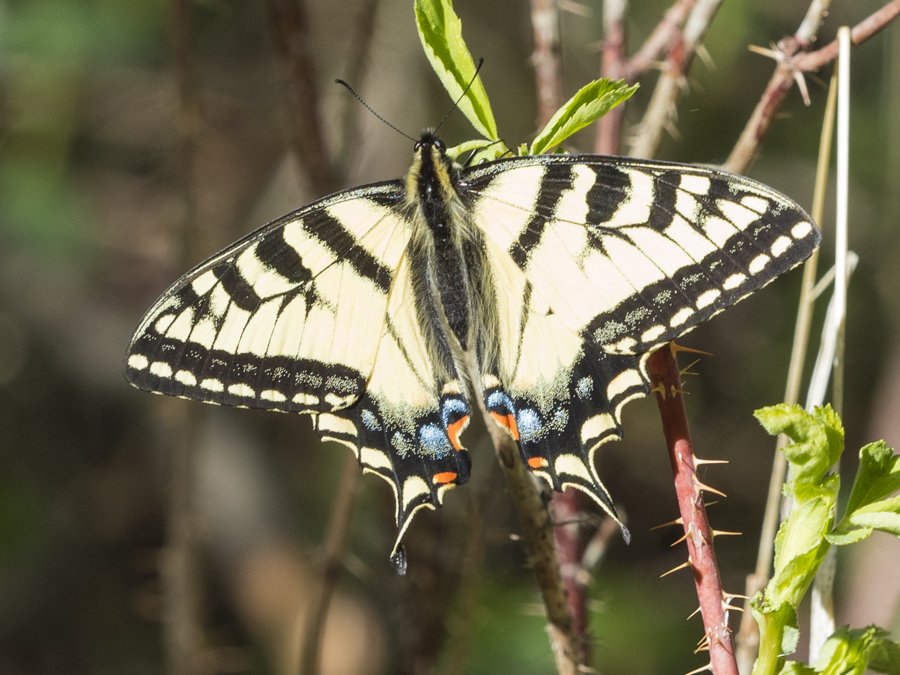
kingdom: Animalia
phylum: Arthropoda
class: Insecta
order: Lepidoptera
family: Papilionidae
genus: Pterourus
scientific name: Pterourus canadensis
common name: Canadian Tiger Swallowtail
